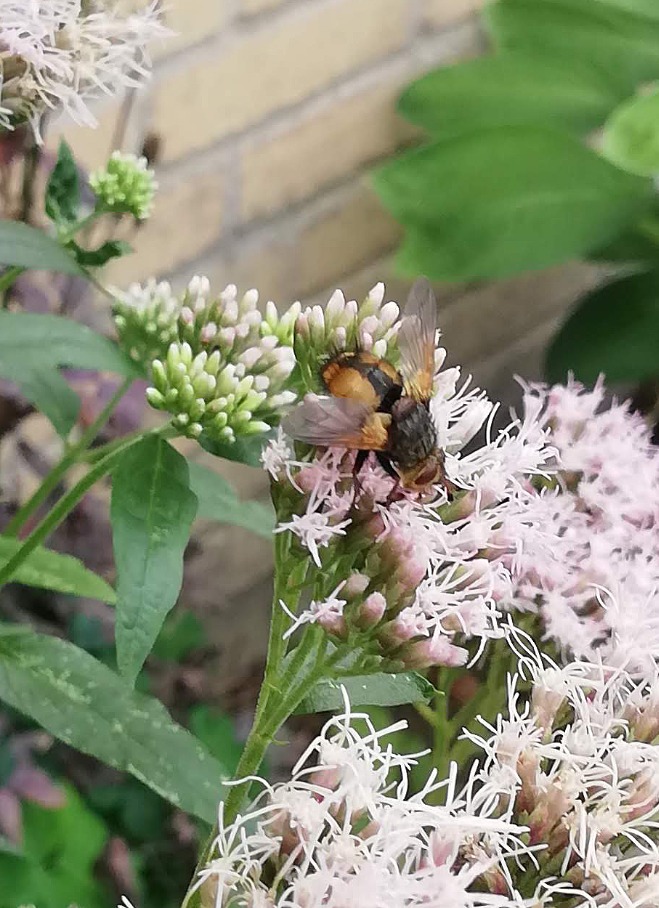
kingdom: Animalia
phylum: Arthropoda
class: Insecta
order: Diptera
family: Tachinidae
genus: Tachina
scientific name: Tachina fera
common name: Mellemfluen oskar
